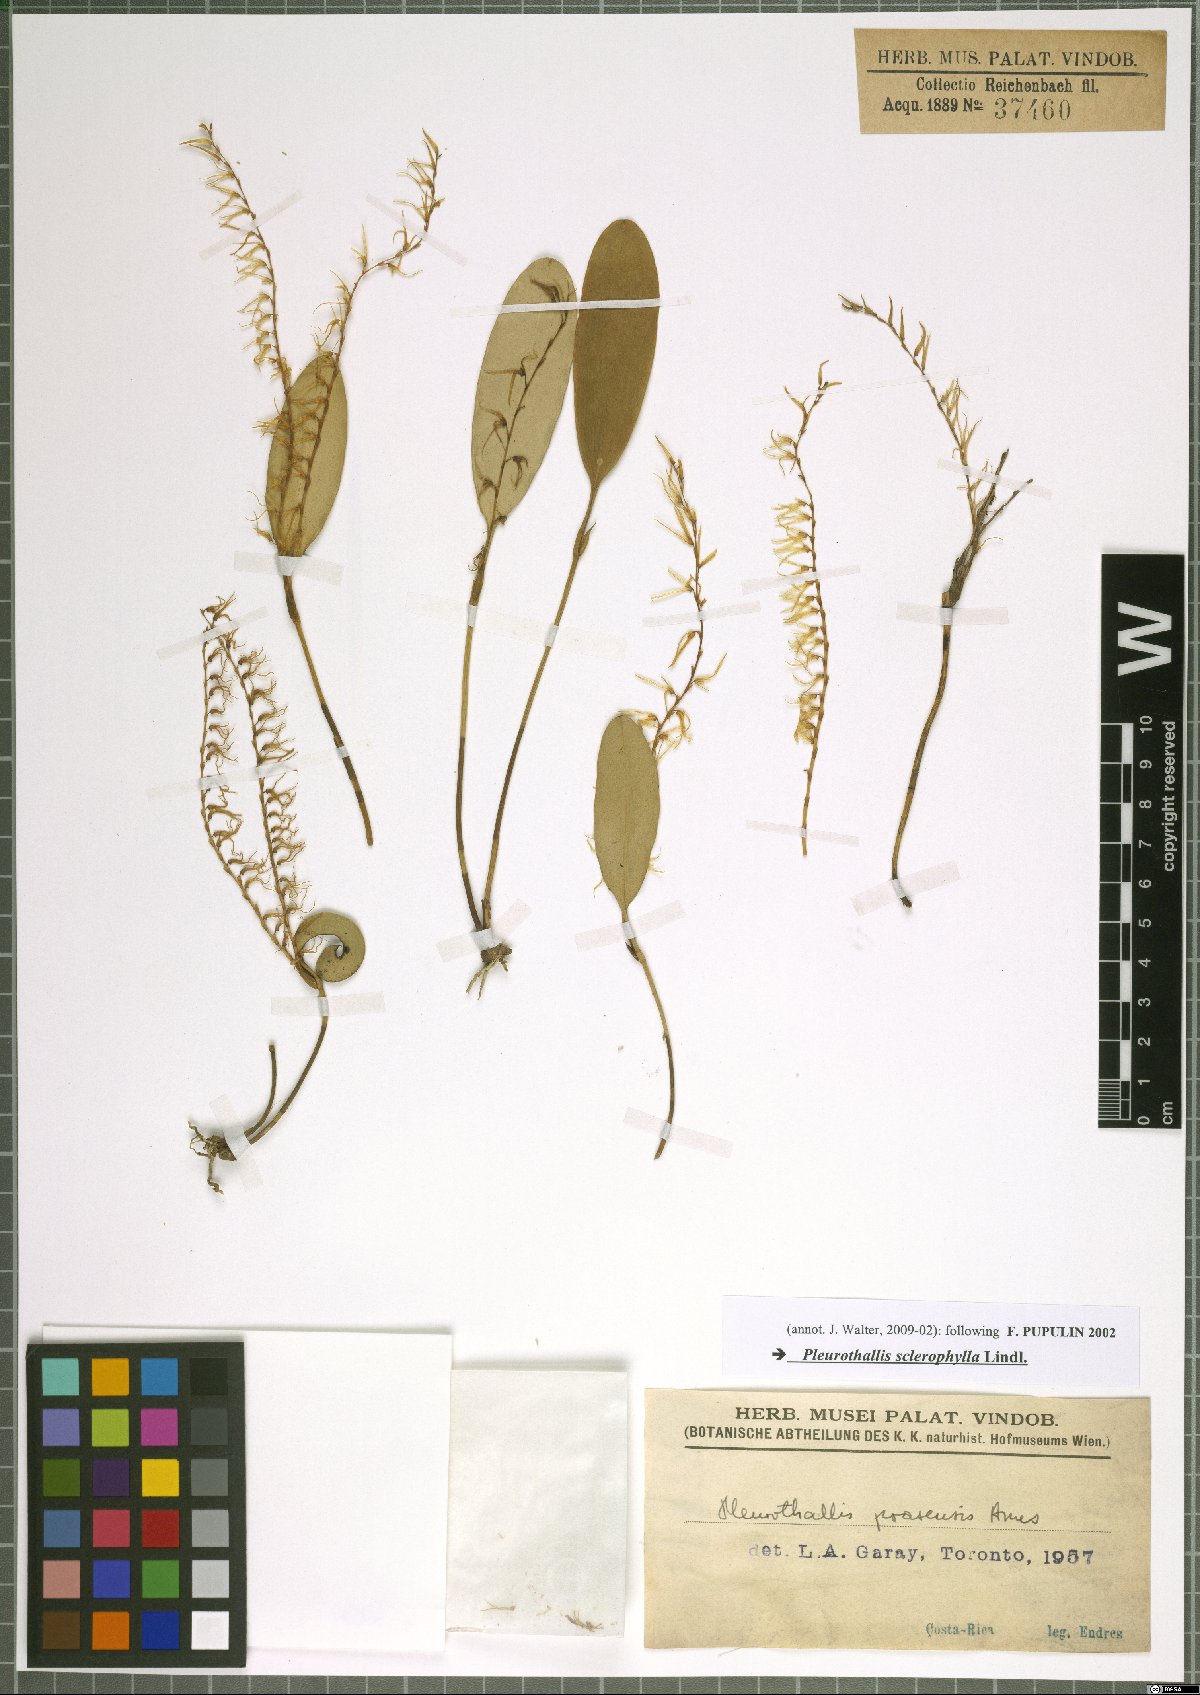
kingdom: Plantae
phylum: Tracheophyta
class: Liliopsida
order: Asparagales
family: Orchidaceae
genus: Stelis
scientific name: Stelis sclerophylla
